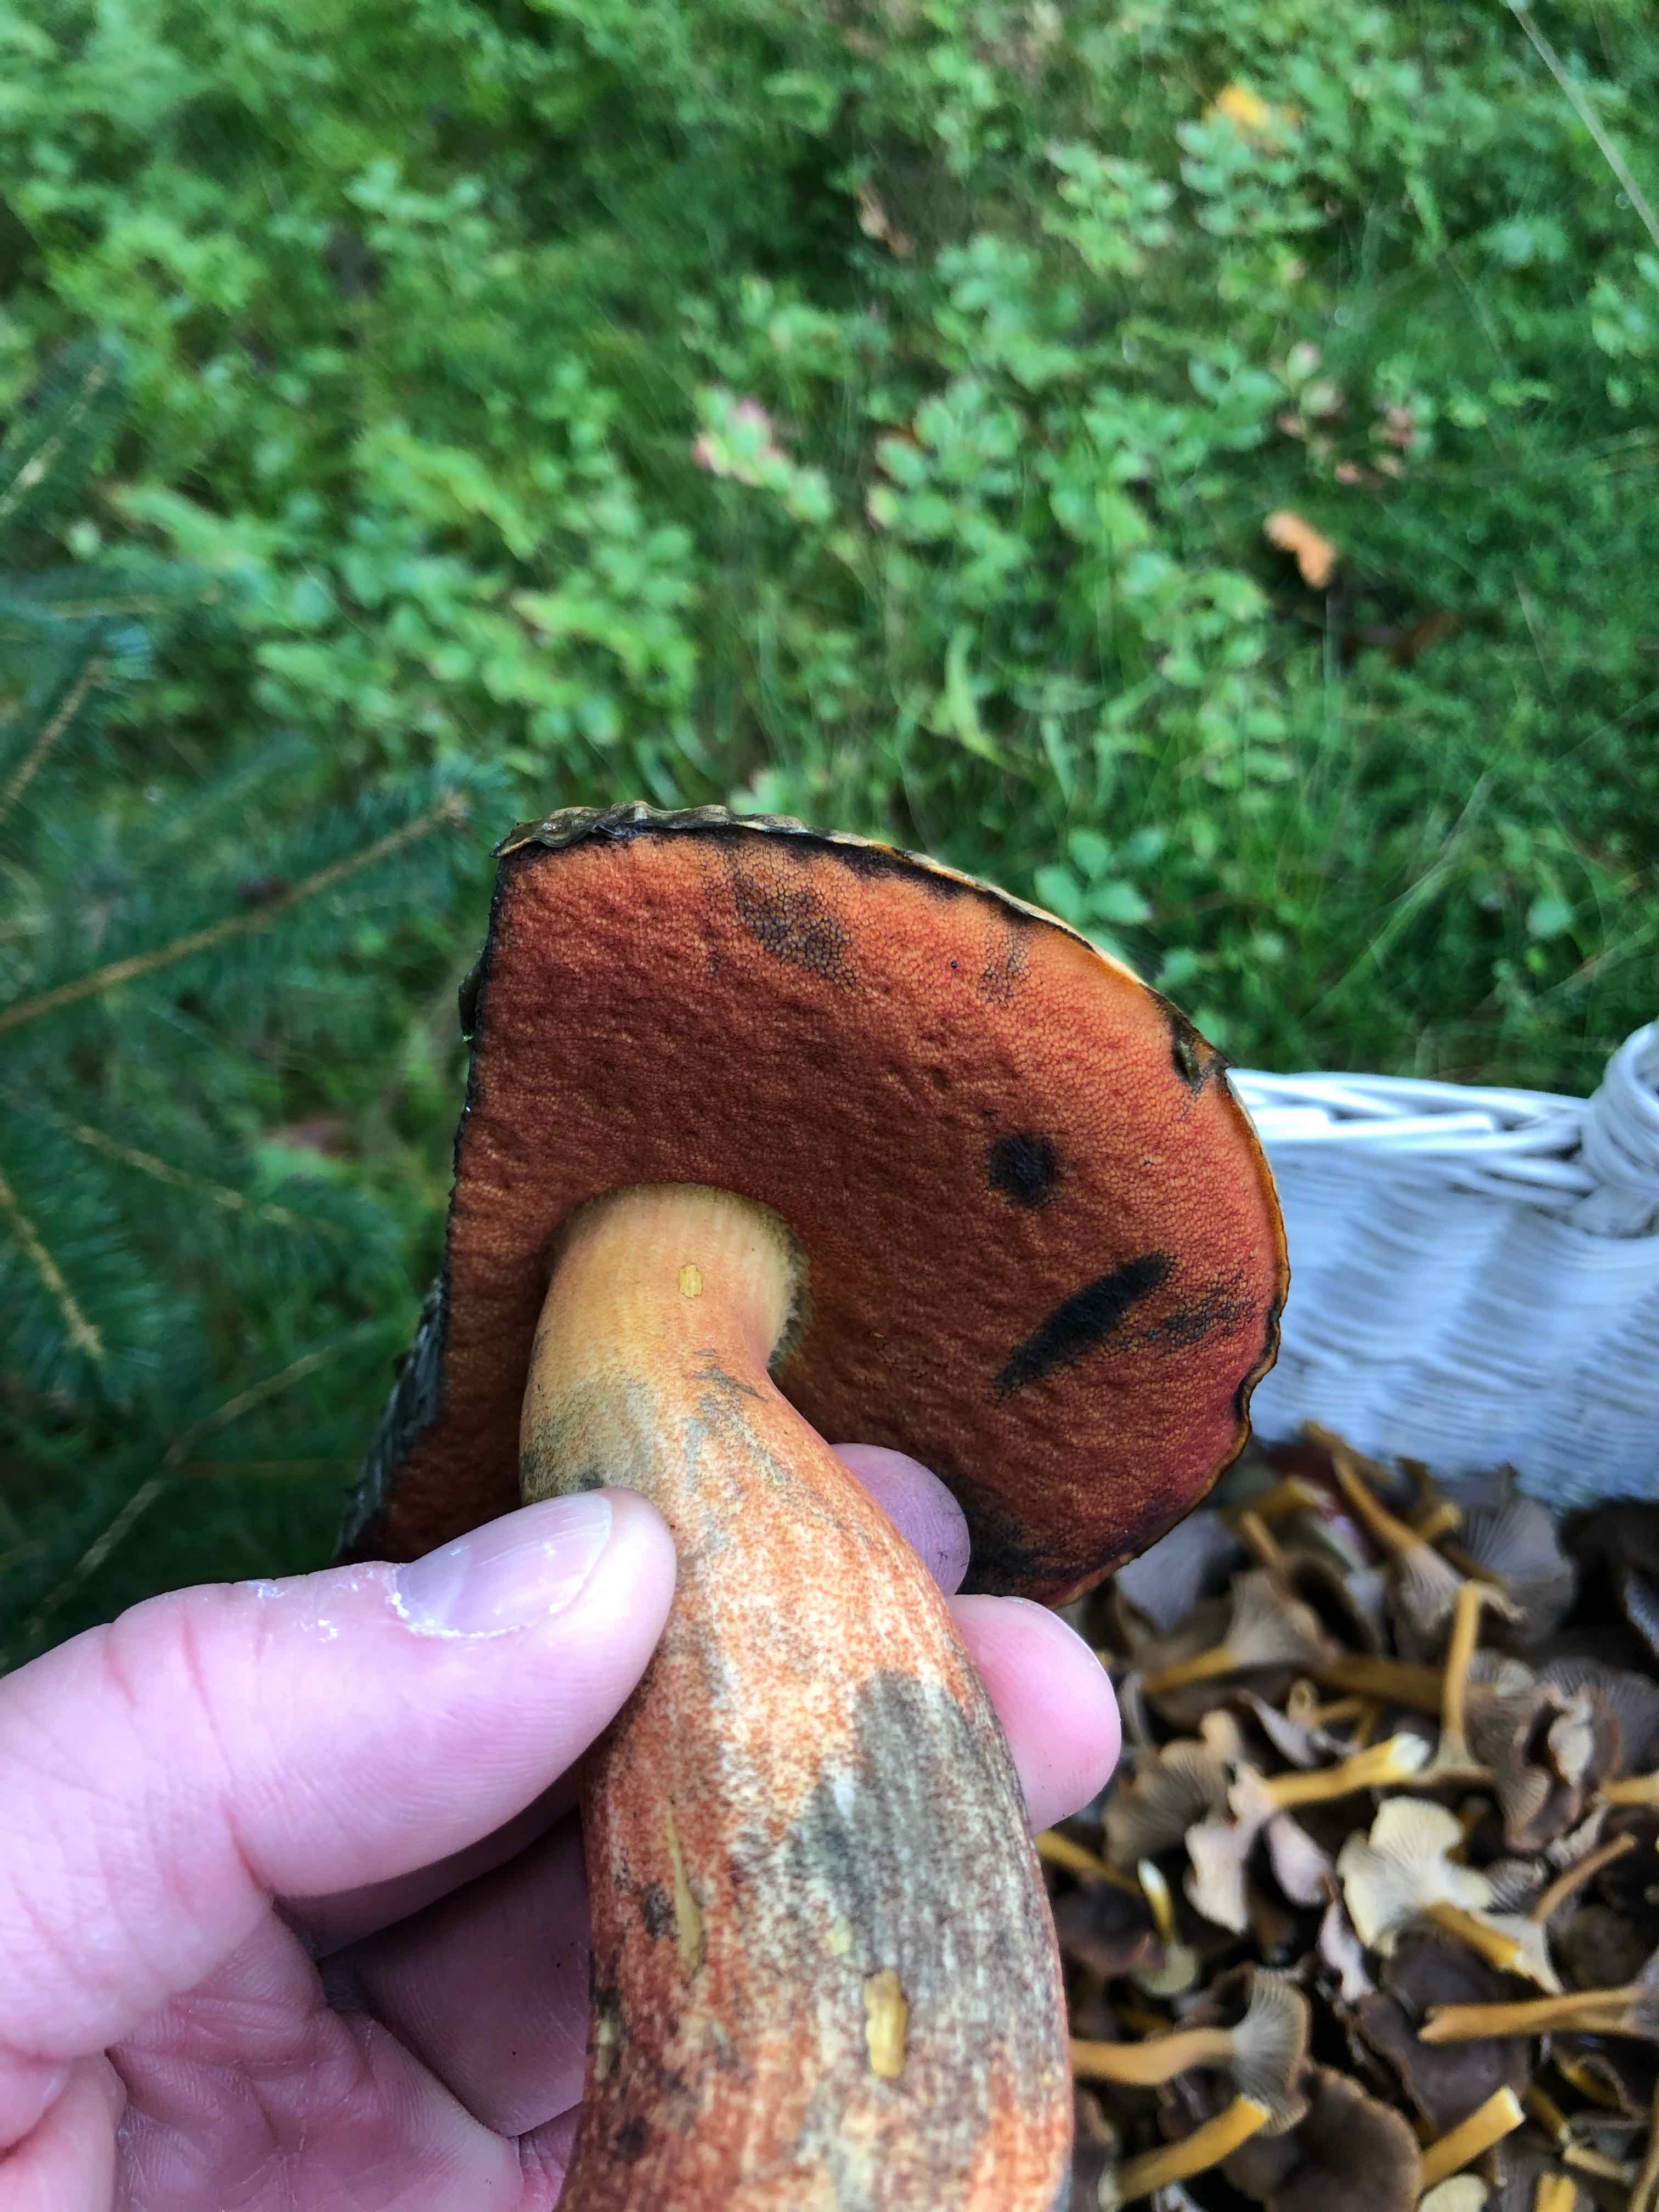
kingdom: Fungi
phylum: Basidiomycota
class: Agaricomycetes
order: Boletales
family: Boletaceae
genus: Neoboletus
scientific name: Neoboletus erythropus
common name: punktstokket indigorørhat
